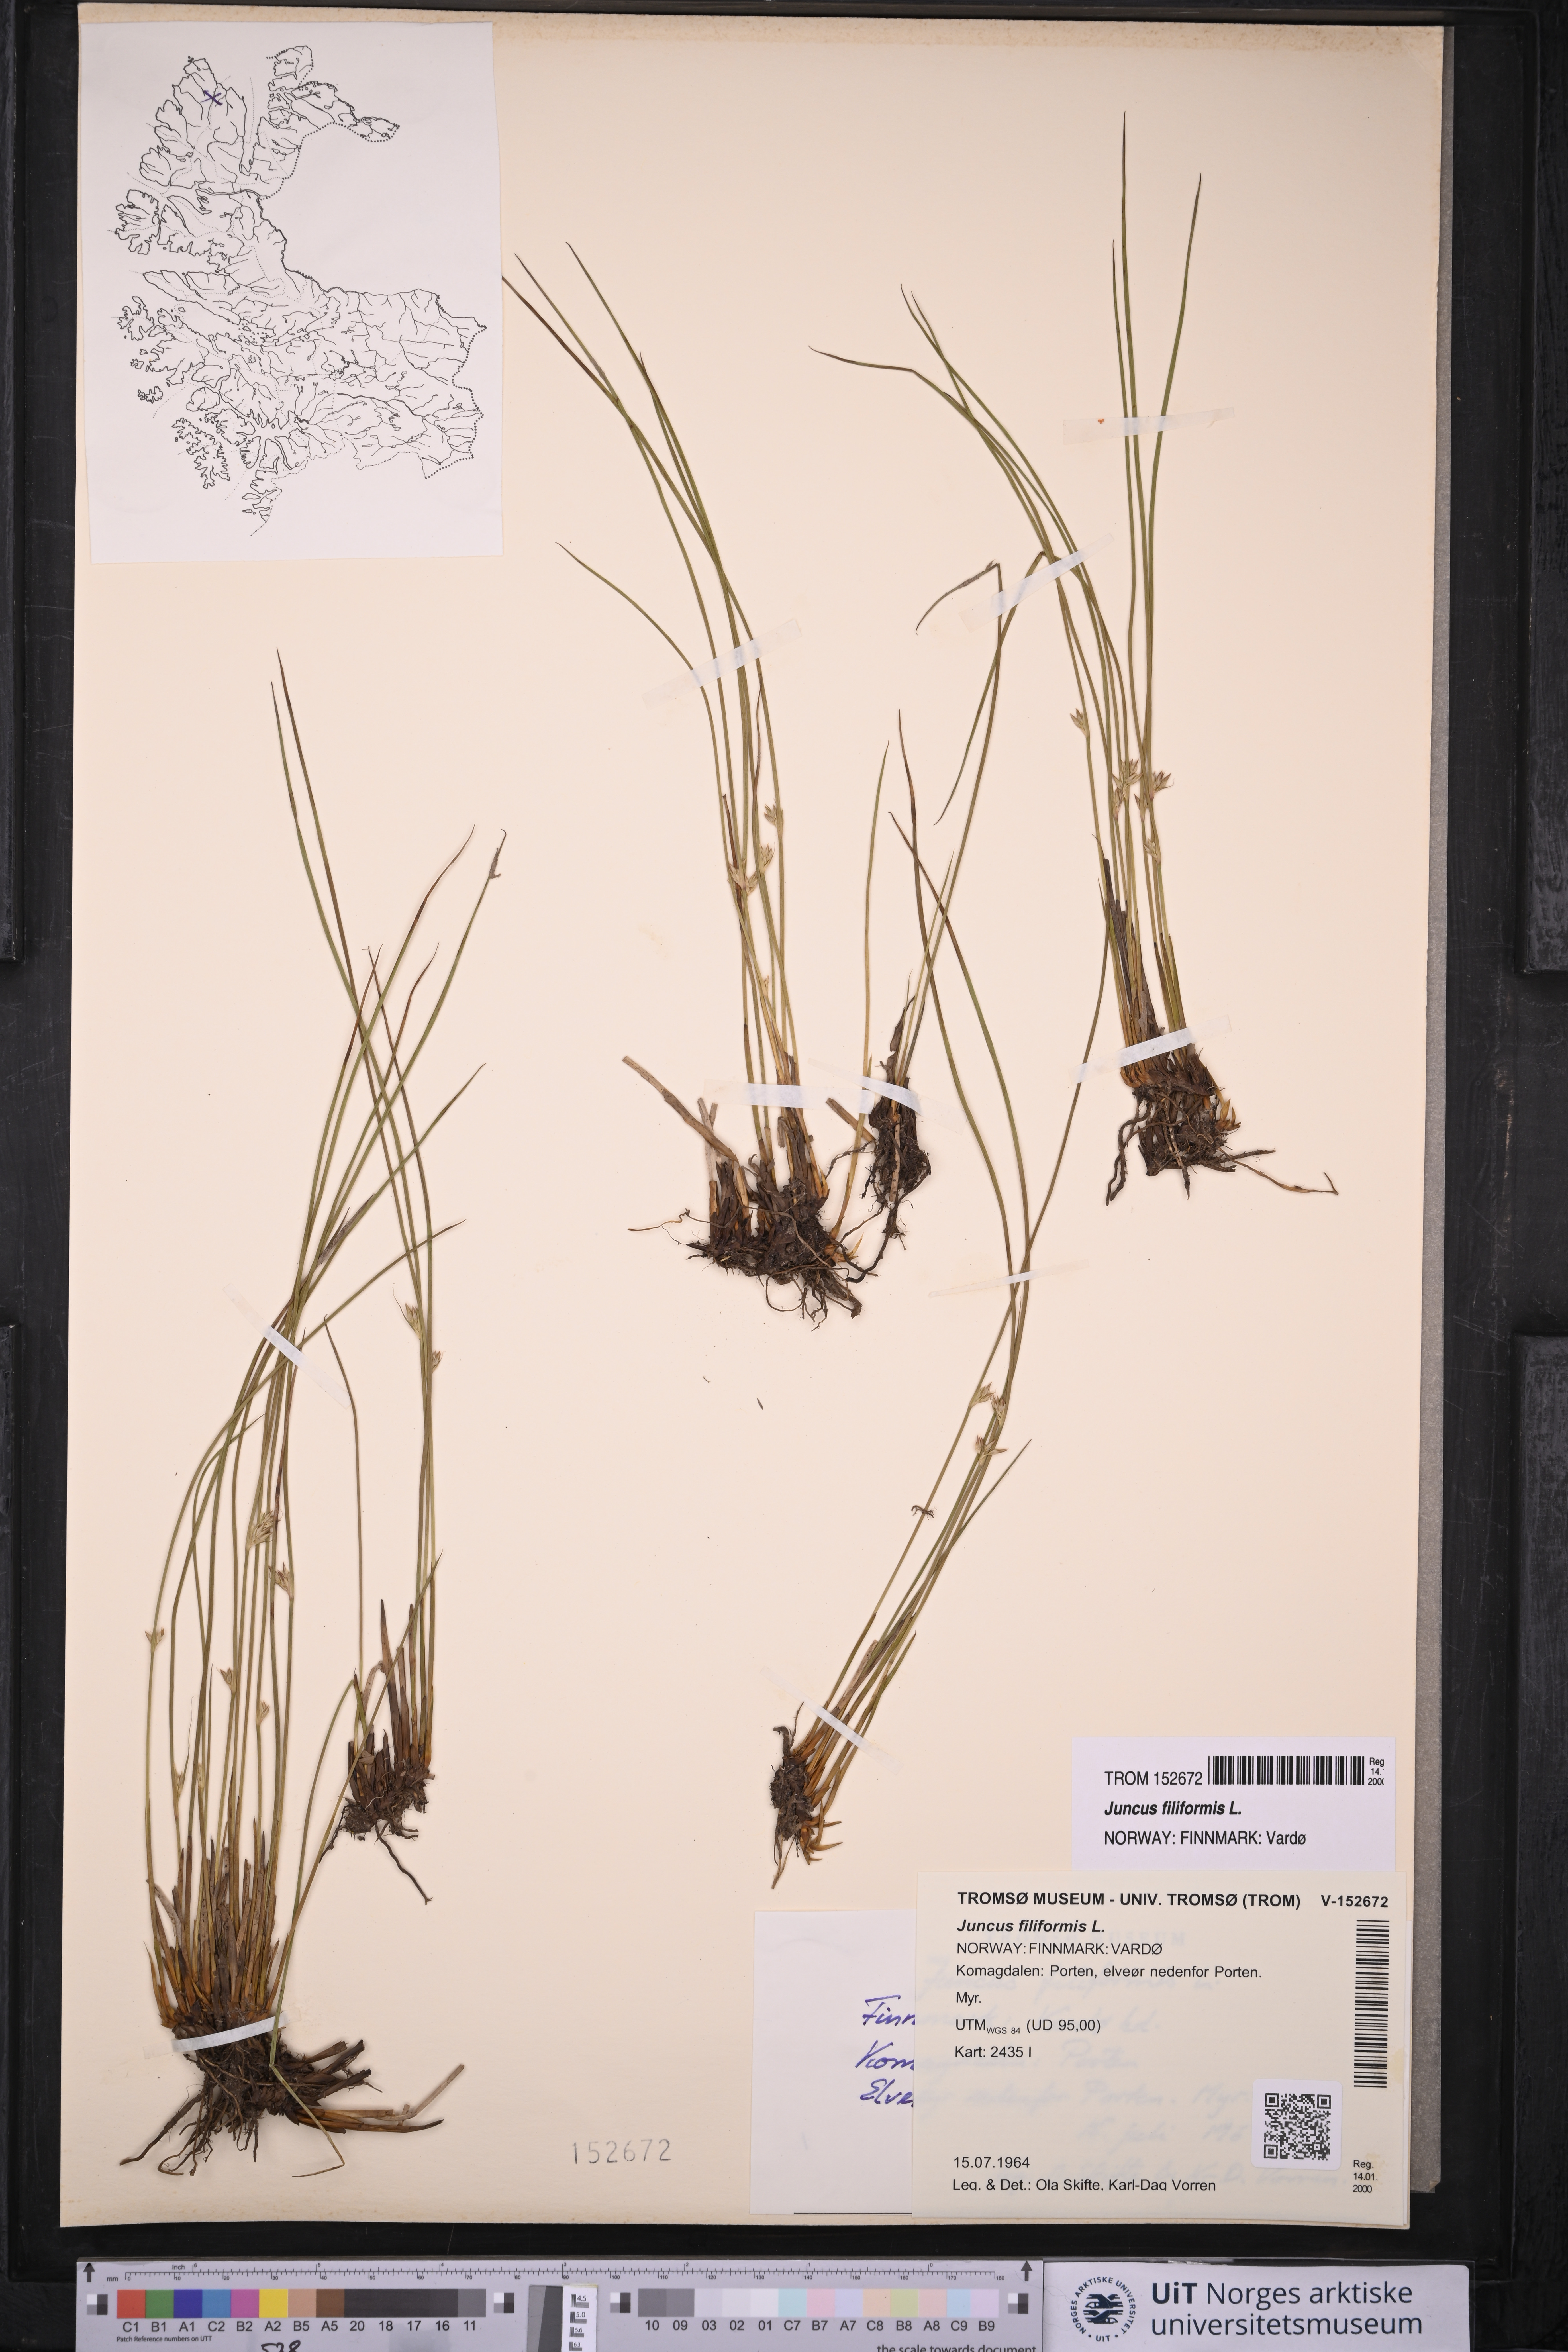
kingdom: Plantae
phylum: Tracheophyta
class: Liliopsida
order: Poales
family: Juncaceae
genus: Juncus
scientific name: Juncus filiformis
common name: Thread rush
